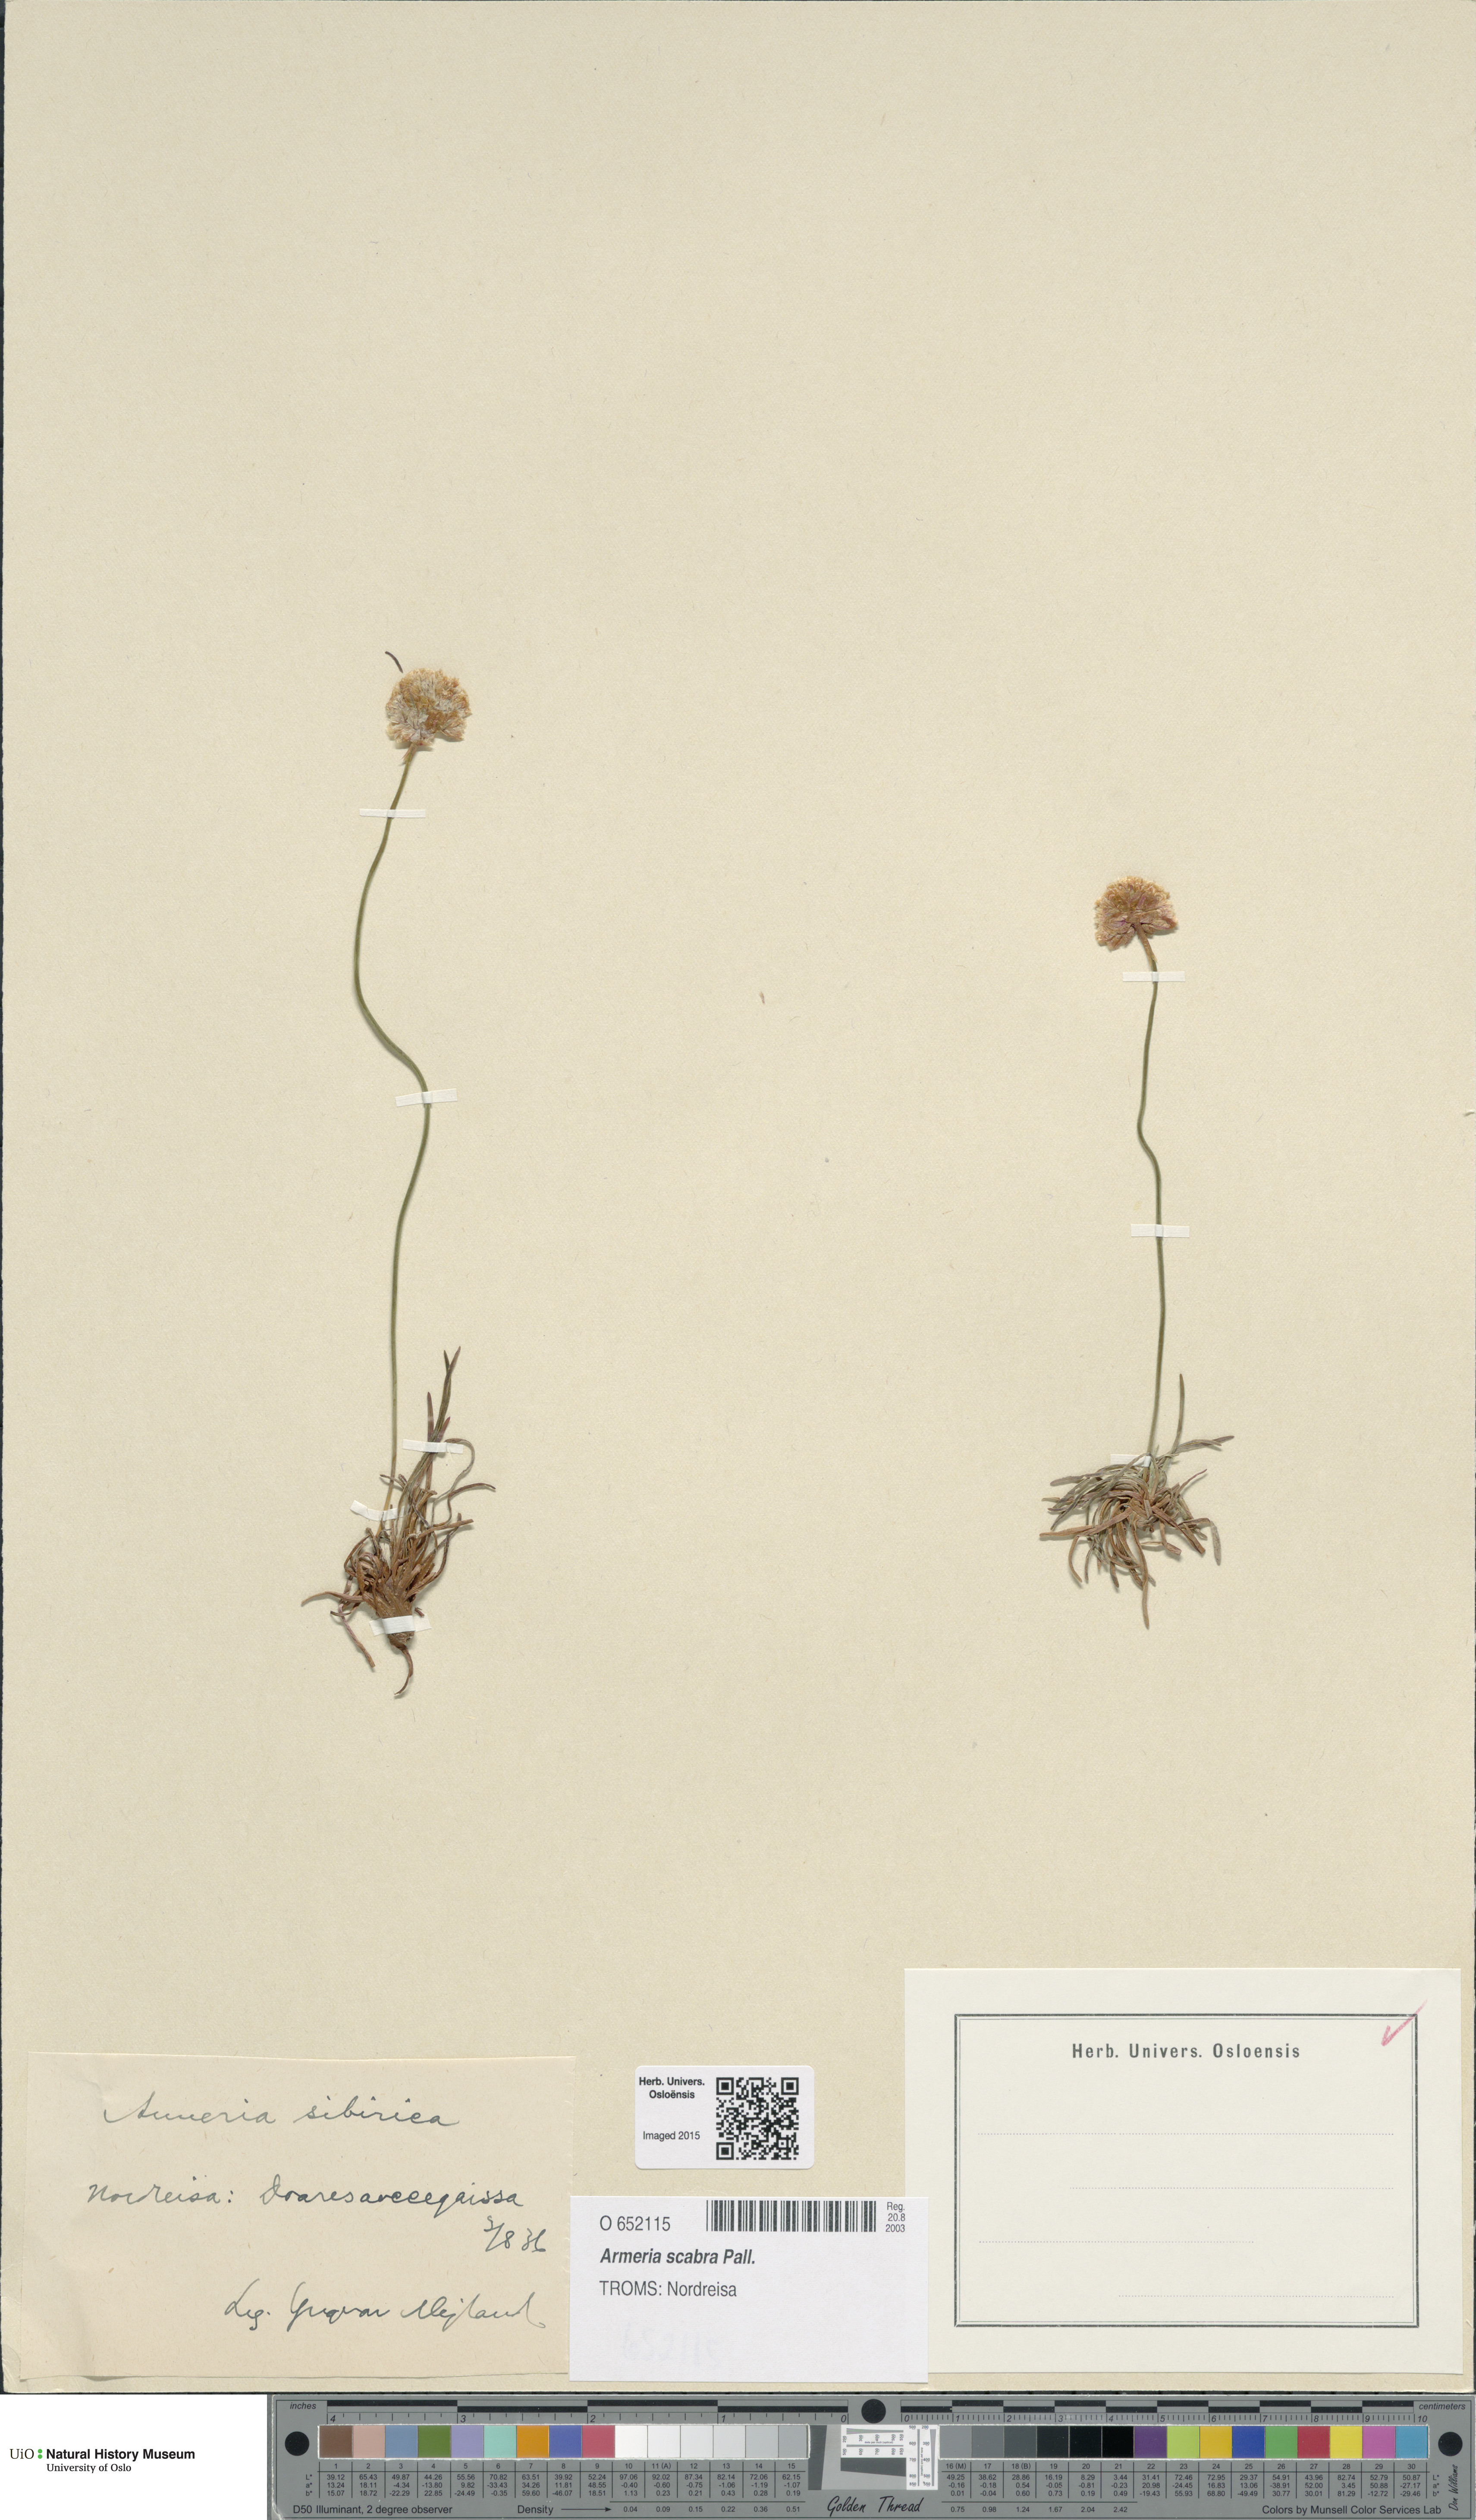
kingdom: Plantae
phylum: Tracheophyta
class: Magnoliopsida
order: Caryophyllales
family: Plumbaginaceae
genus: Armeria
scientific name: Armeria maritima
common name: Thrift
